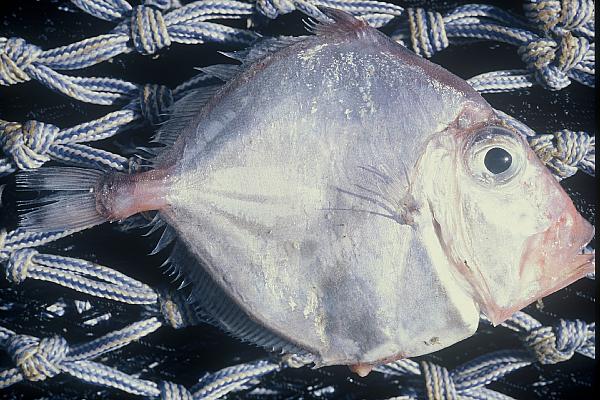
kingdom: Animalia
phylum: Chordata
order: Zeiformes
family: Cyttidae
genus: Cyttus
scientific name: Cyttus traversi
